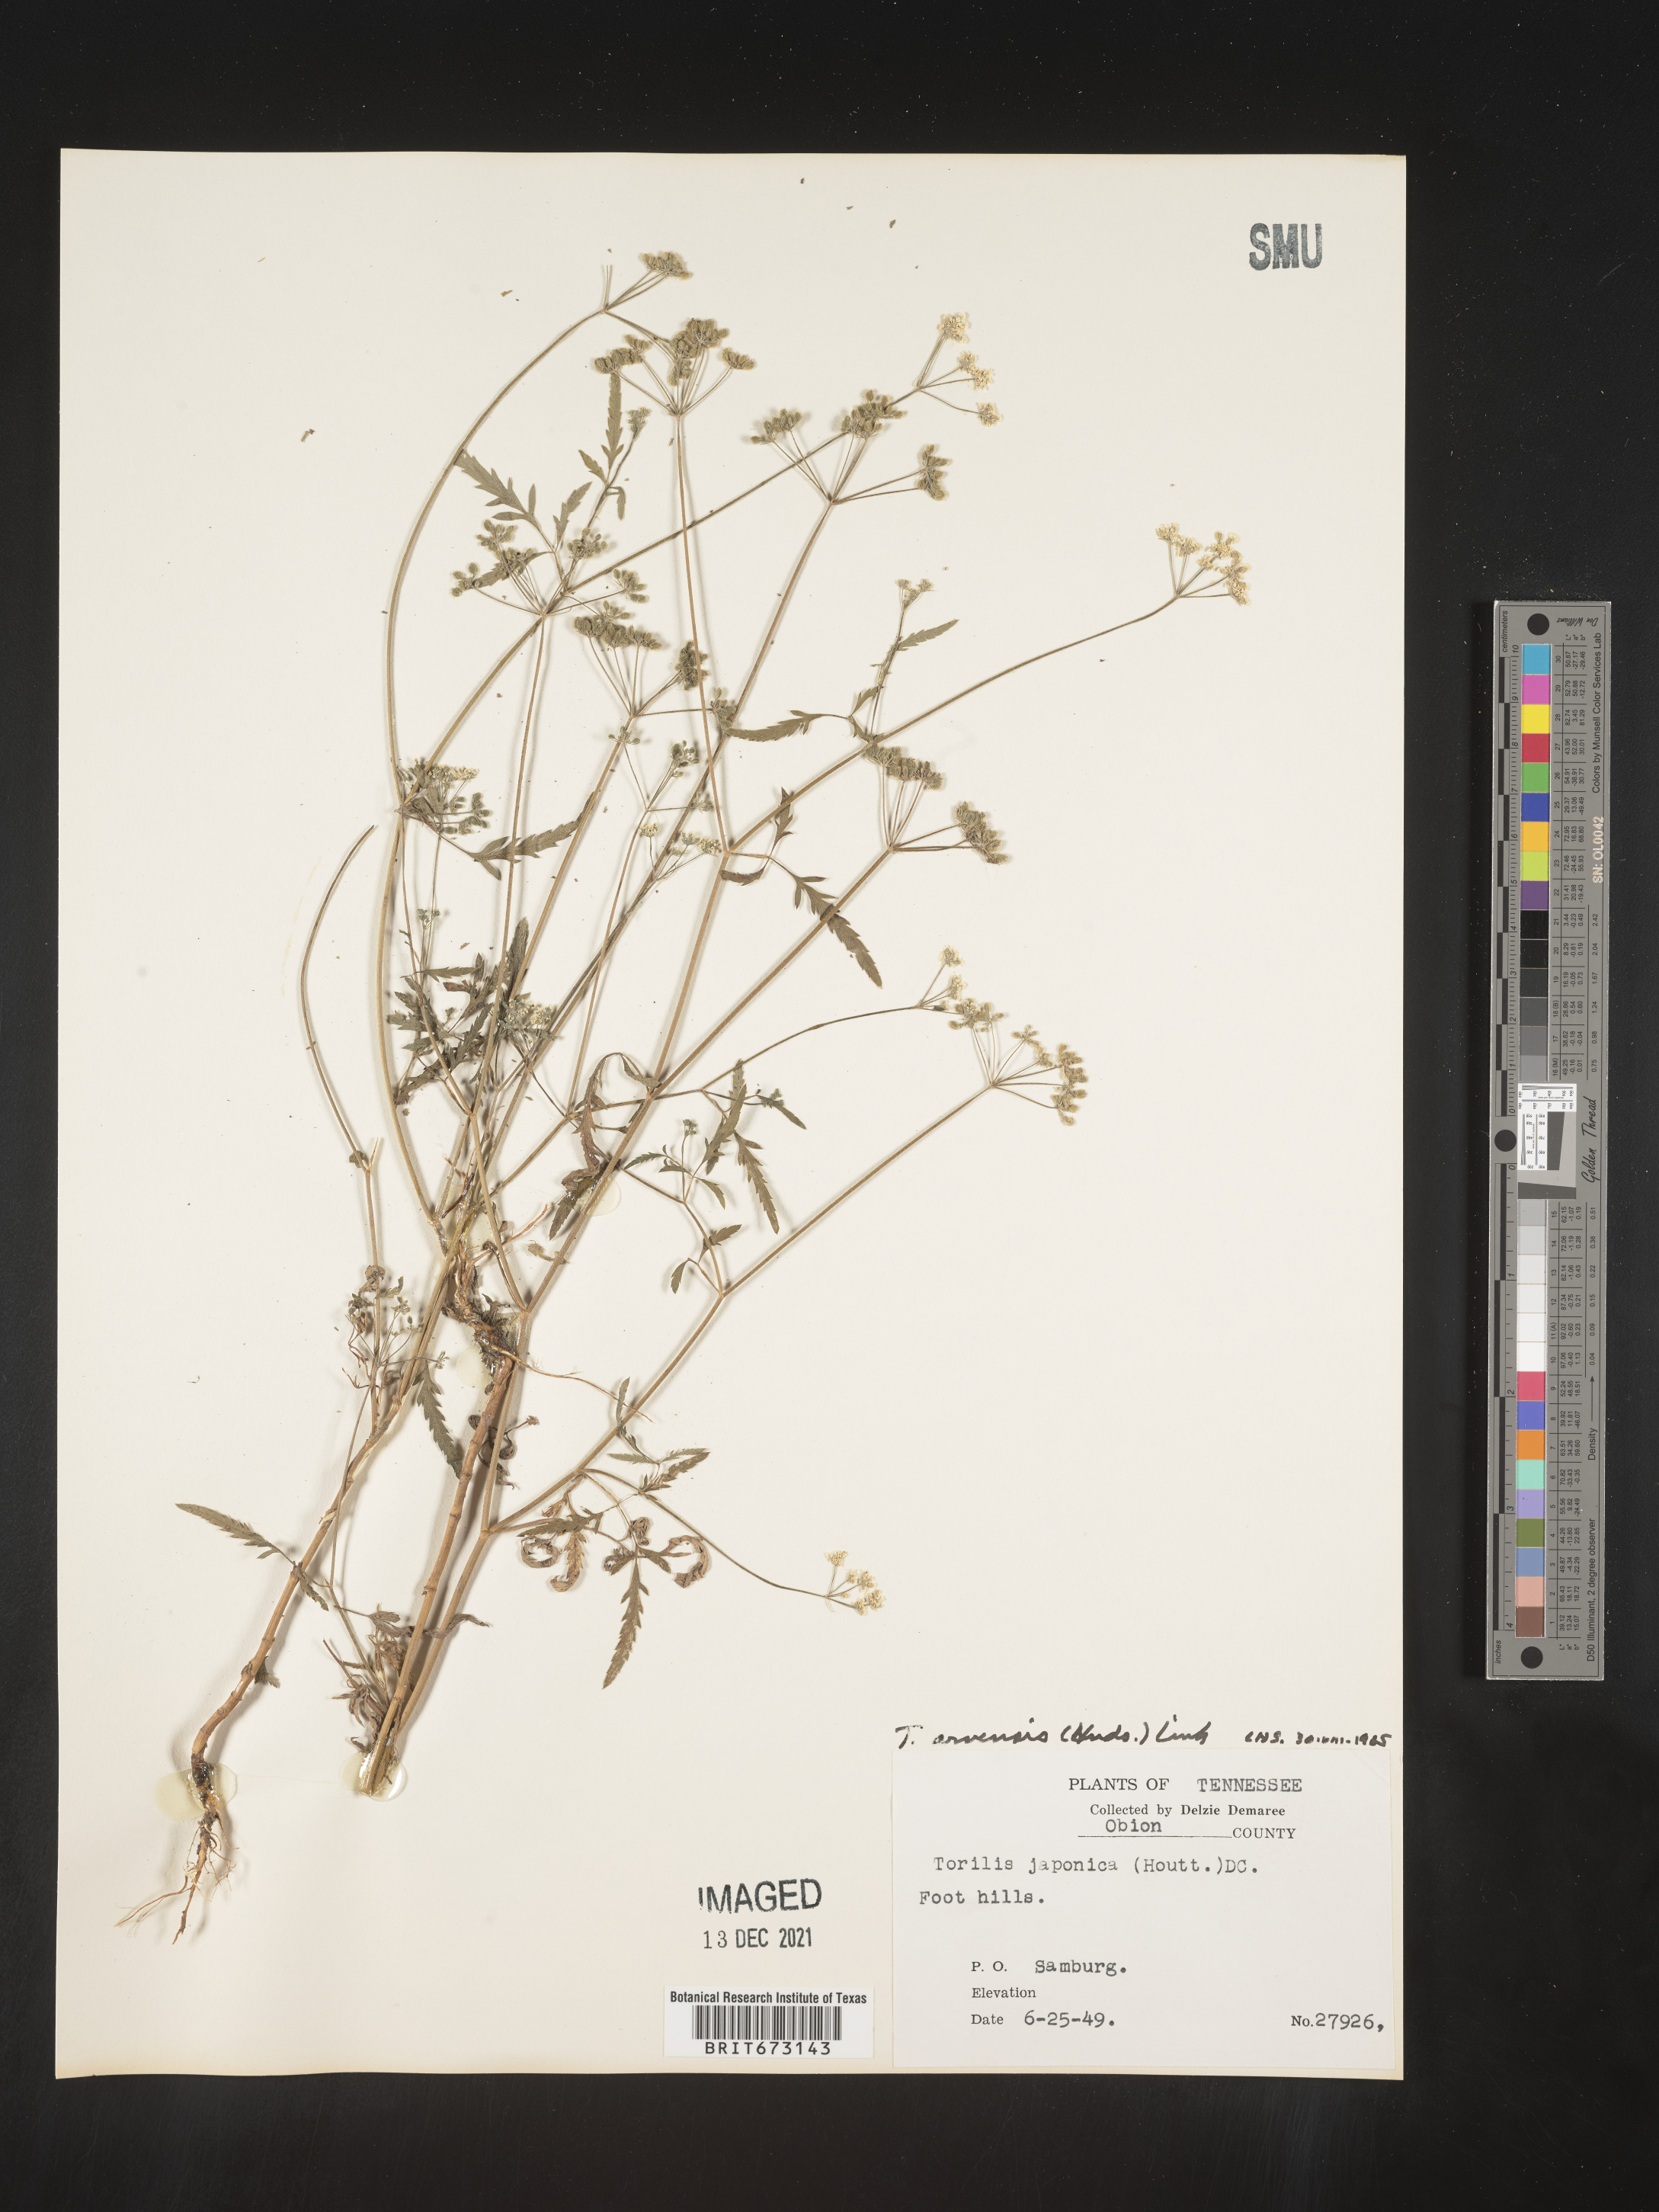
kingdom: Plantae
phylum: Tracheophyta
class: Magnoliopsida
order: Apiales
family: Apiaceae
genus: Torilis
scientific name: Torilis arvensis
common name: Spreading hedge-parsley
